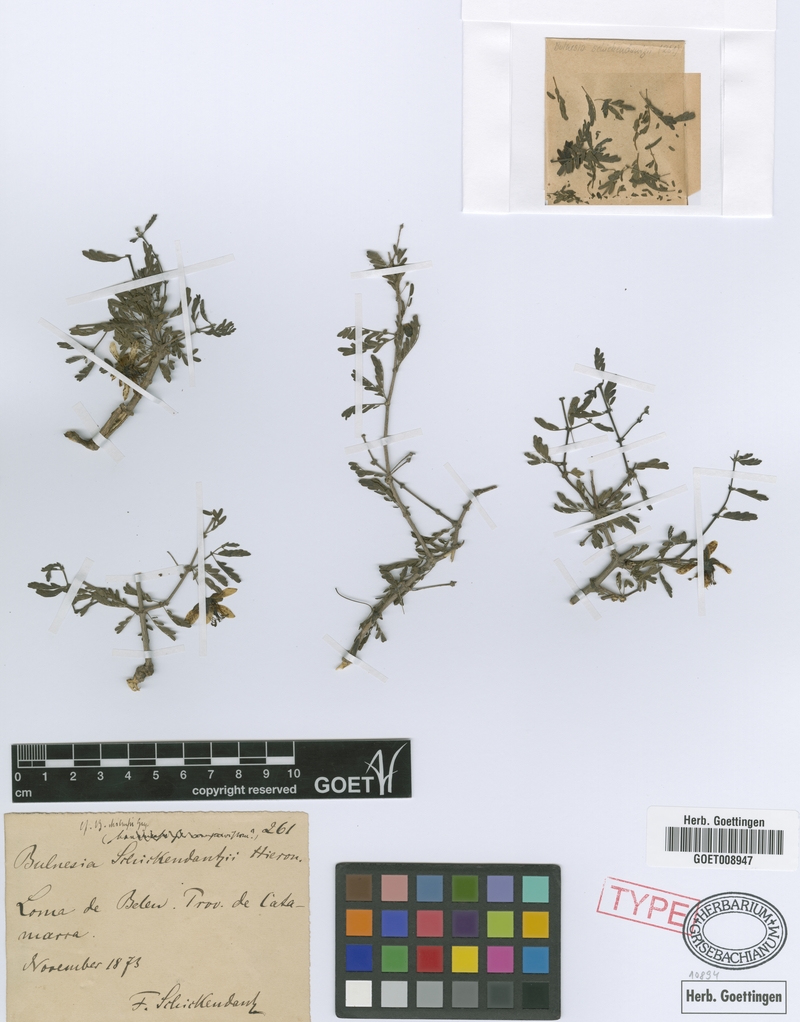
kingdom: Plantae
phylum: Tracheophyta
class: Magnoliopsida
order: Zygophyllales
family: Zygophyllaceae
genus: Bulnesia
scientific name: Bulnesia schickendanzii
